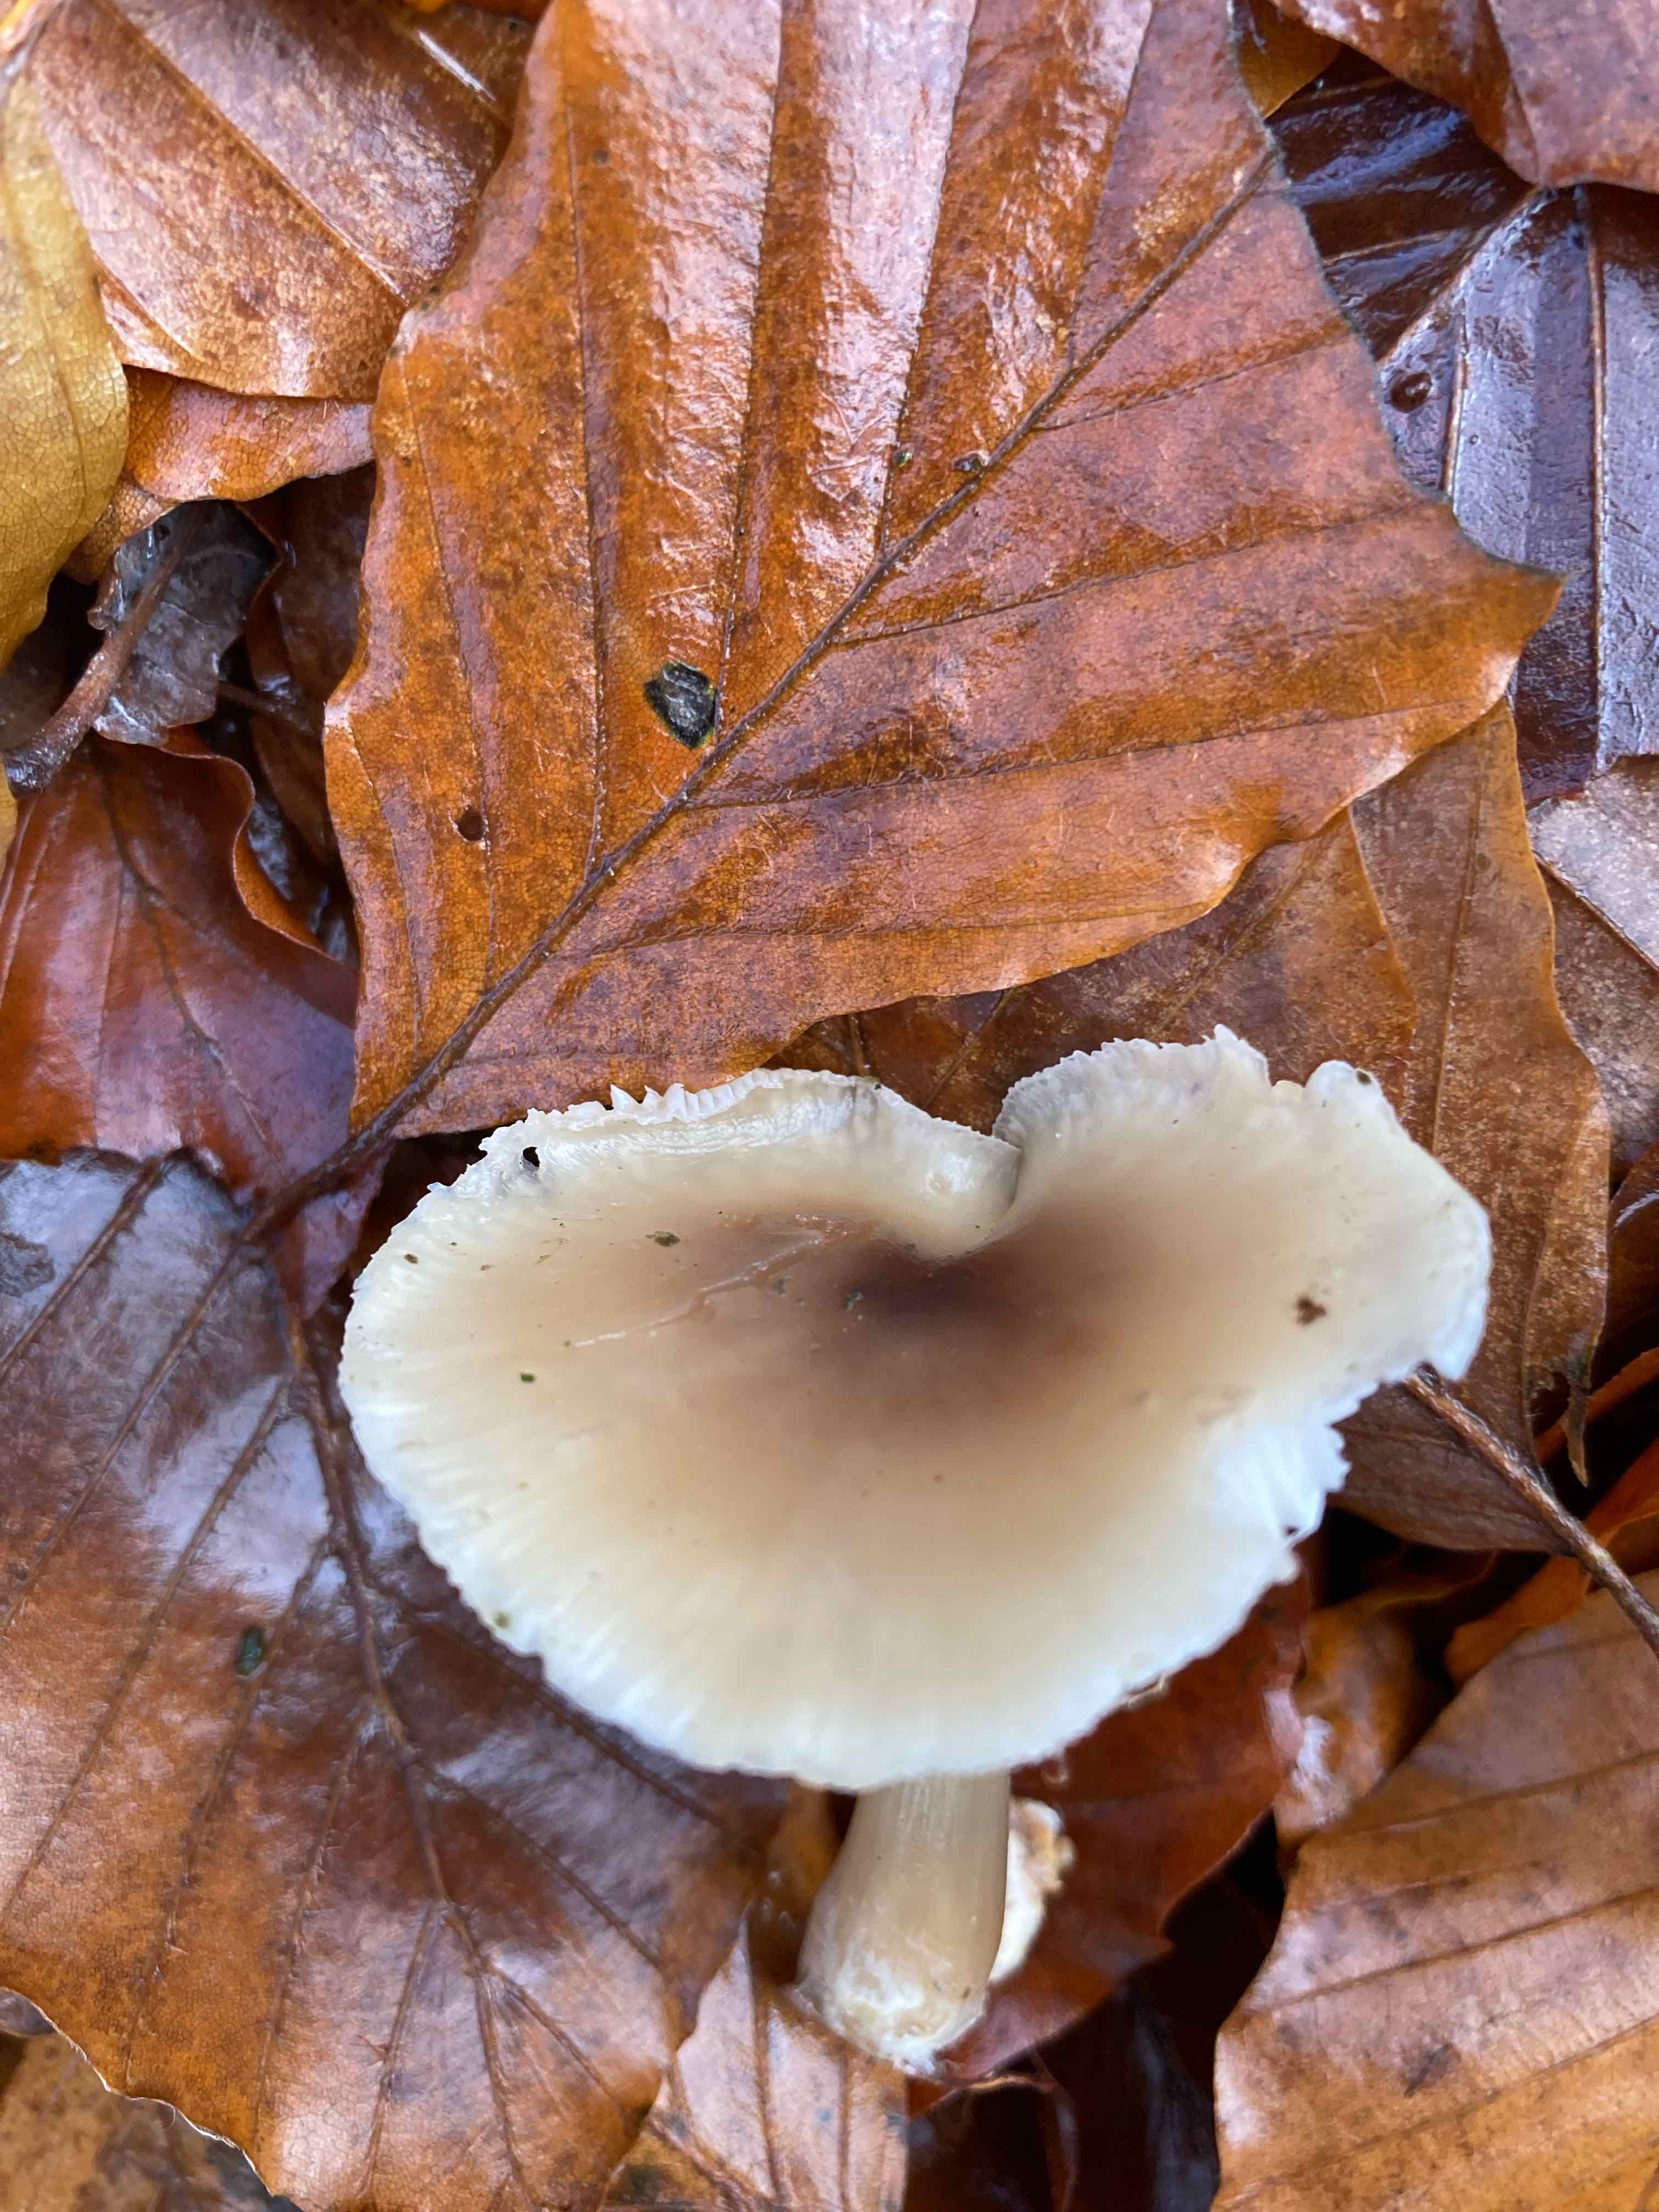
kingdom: Fungi
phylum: Basidiomycota
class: Agaricomycetes
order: Agaricales
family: Omphalotaceae
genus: Rhodocollybia
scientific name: Rhodocollybia asema
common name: horngrå fladhat
